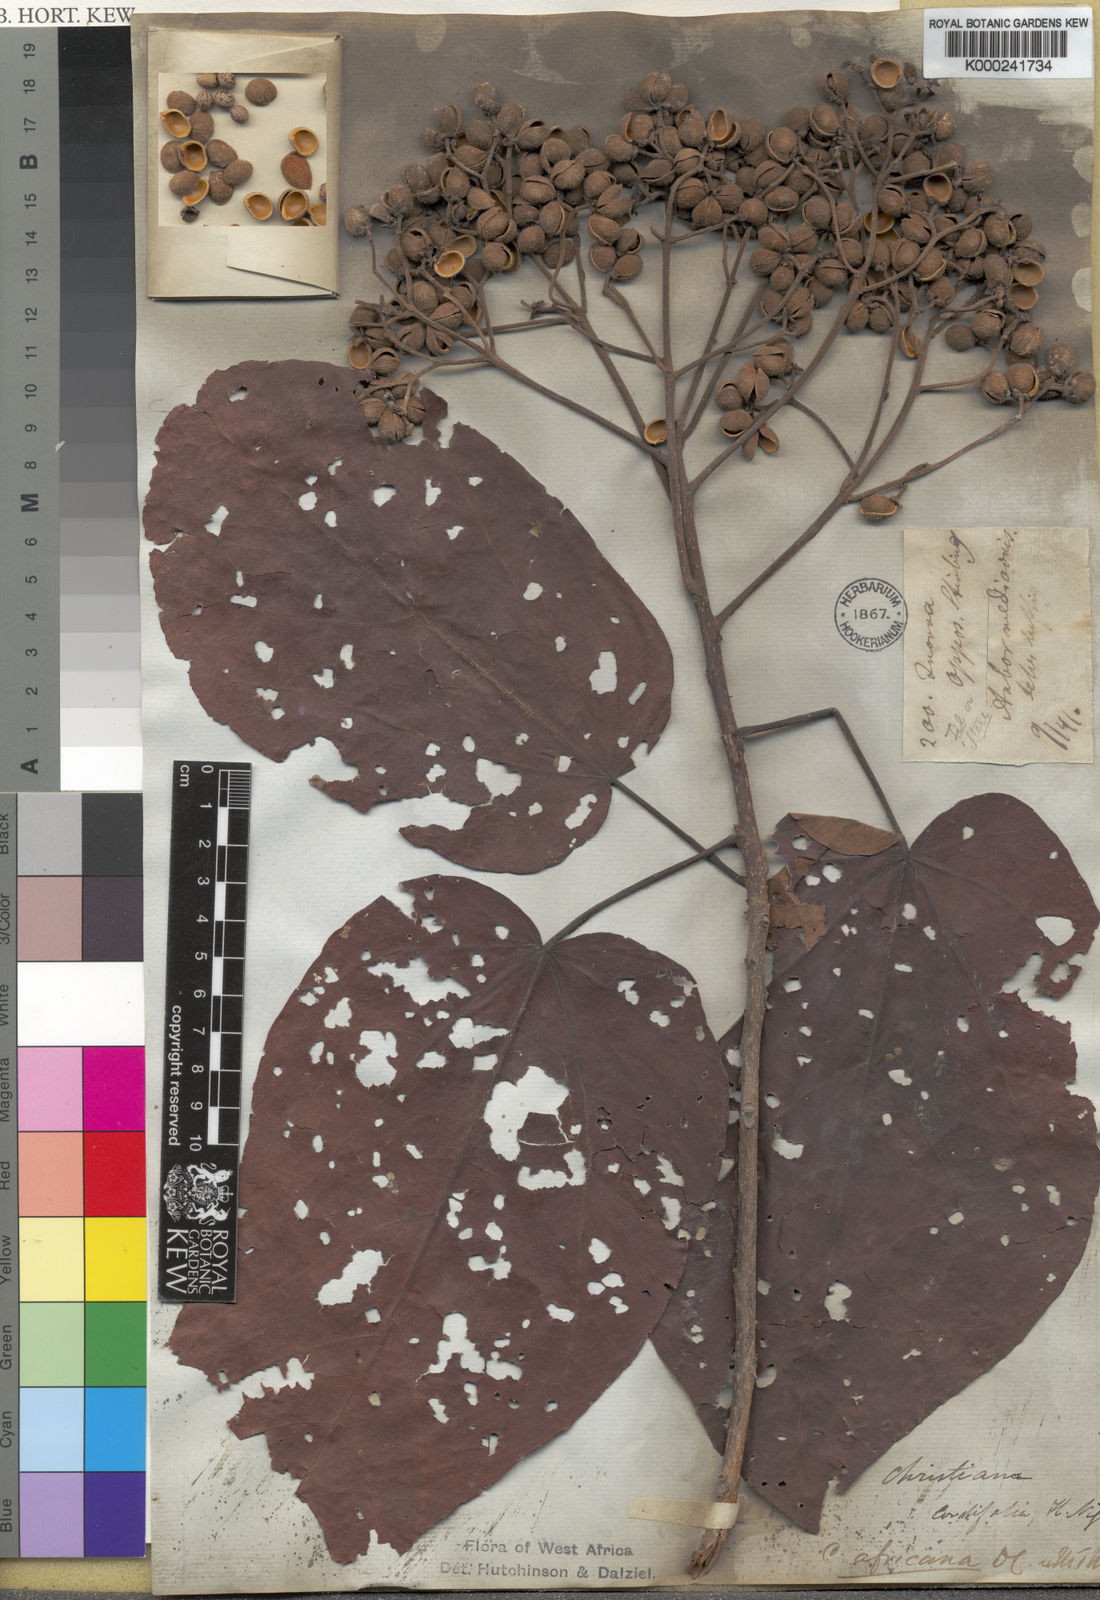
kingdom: Plantae
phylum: Tracheophyta
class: Magnoliopsida
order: Malvales
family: Malvaceae
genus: Christiana
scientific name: Christiana africana
